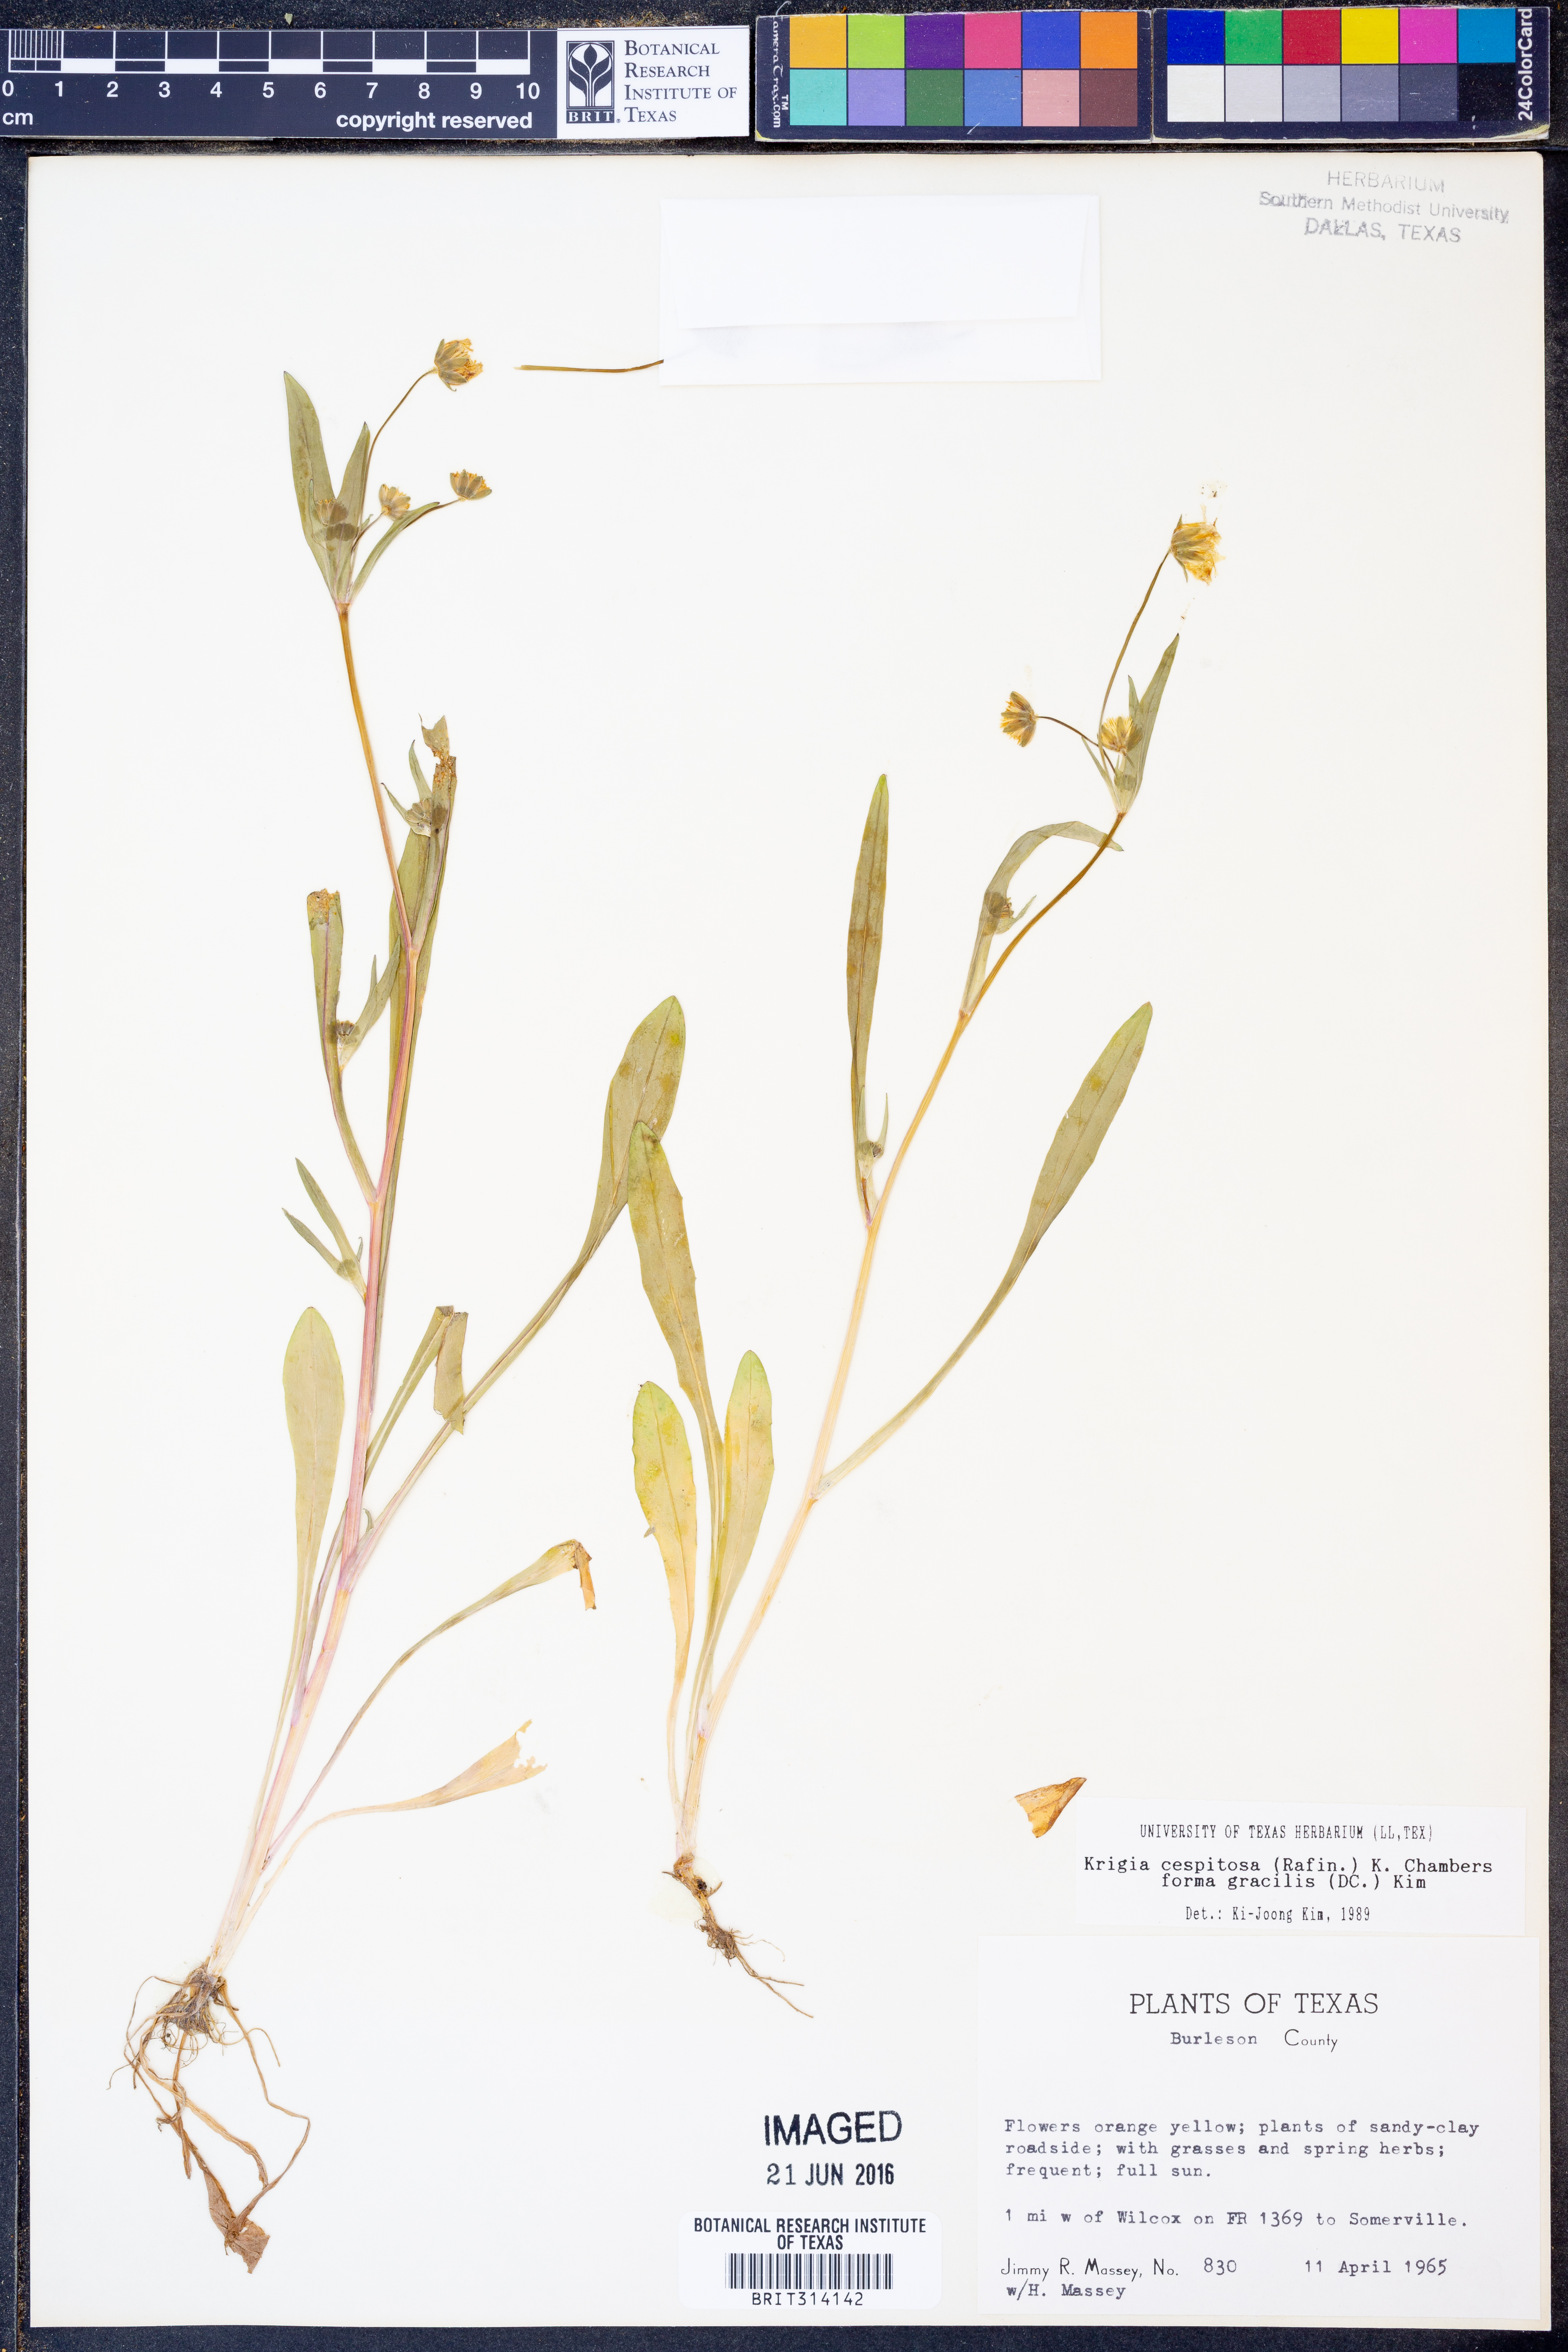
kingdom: Plantae
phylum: Tracheophyta
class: Magnoliopsida
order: Asterales
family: Asteraceae
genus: Krigia
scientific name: Krigia cespitosa
